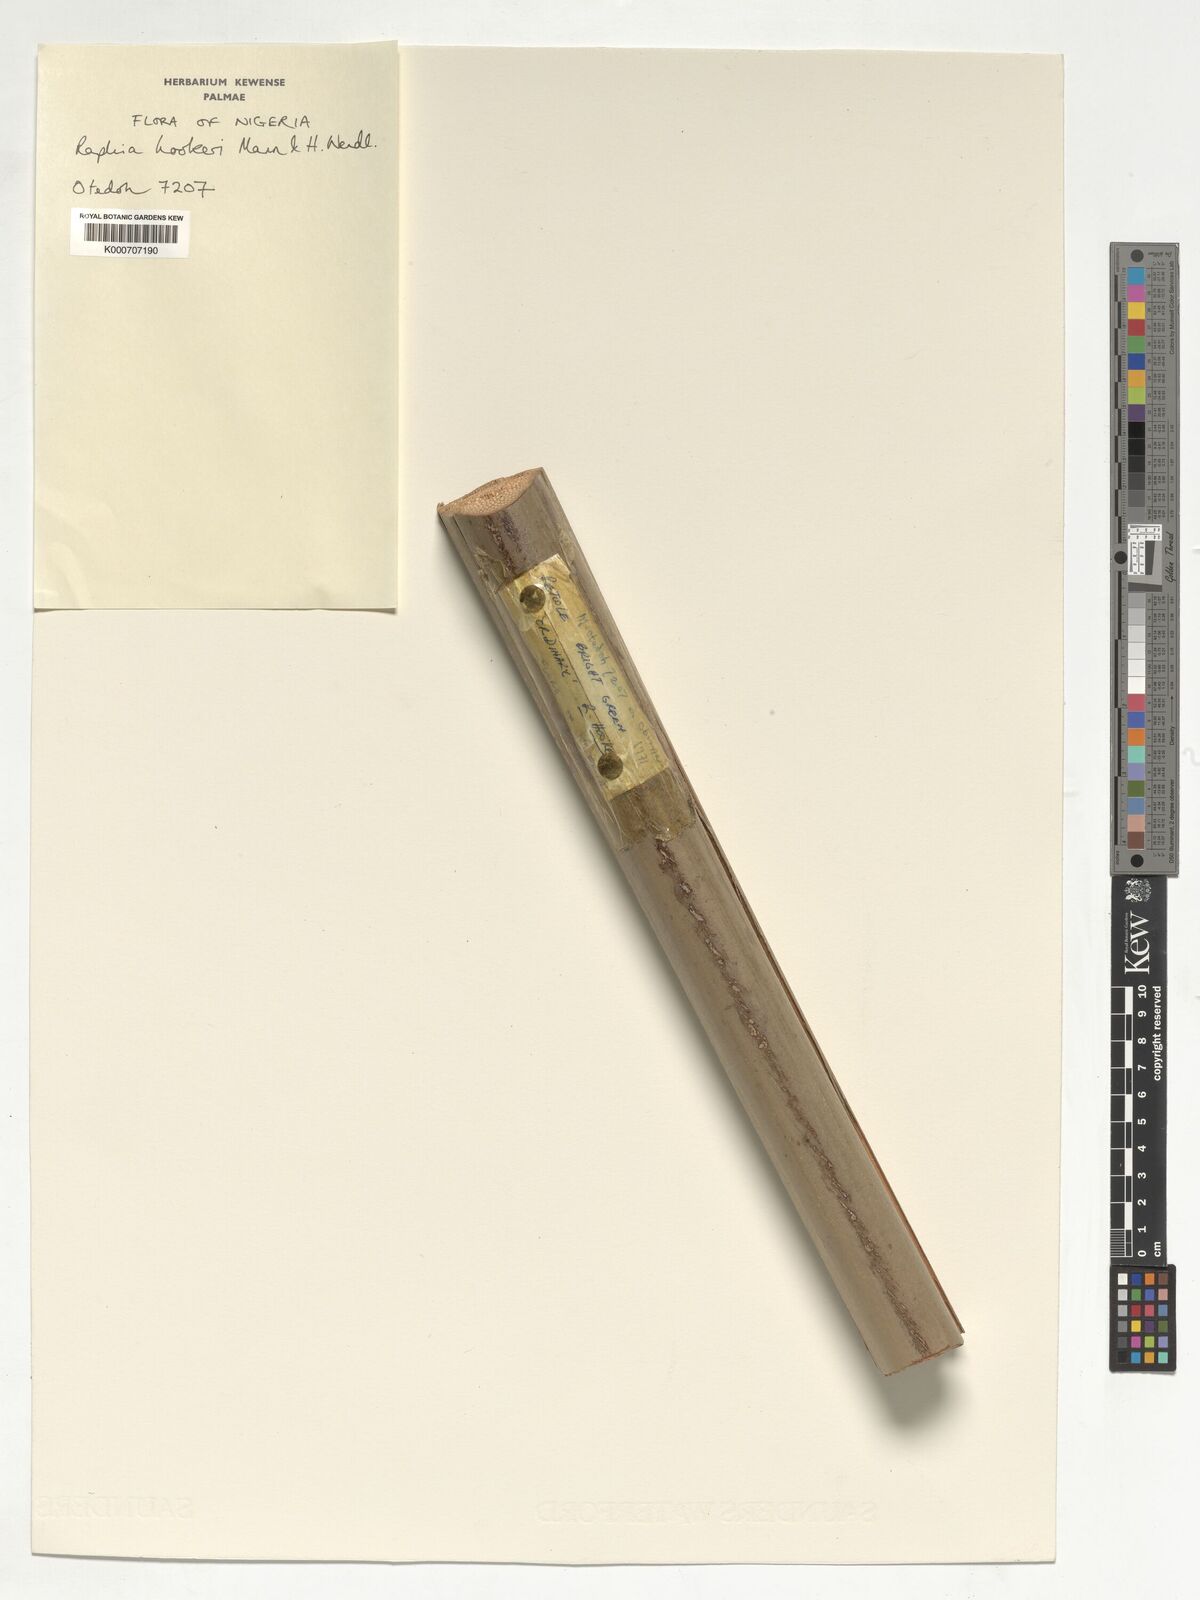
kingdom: Plantae
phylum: Tracheophyta
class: Liliopsida
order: Arecales
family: Arecaceae
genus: Raphia
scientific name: Raphia hookeri
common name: Wine palm
